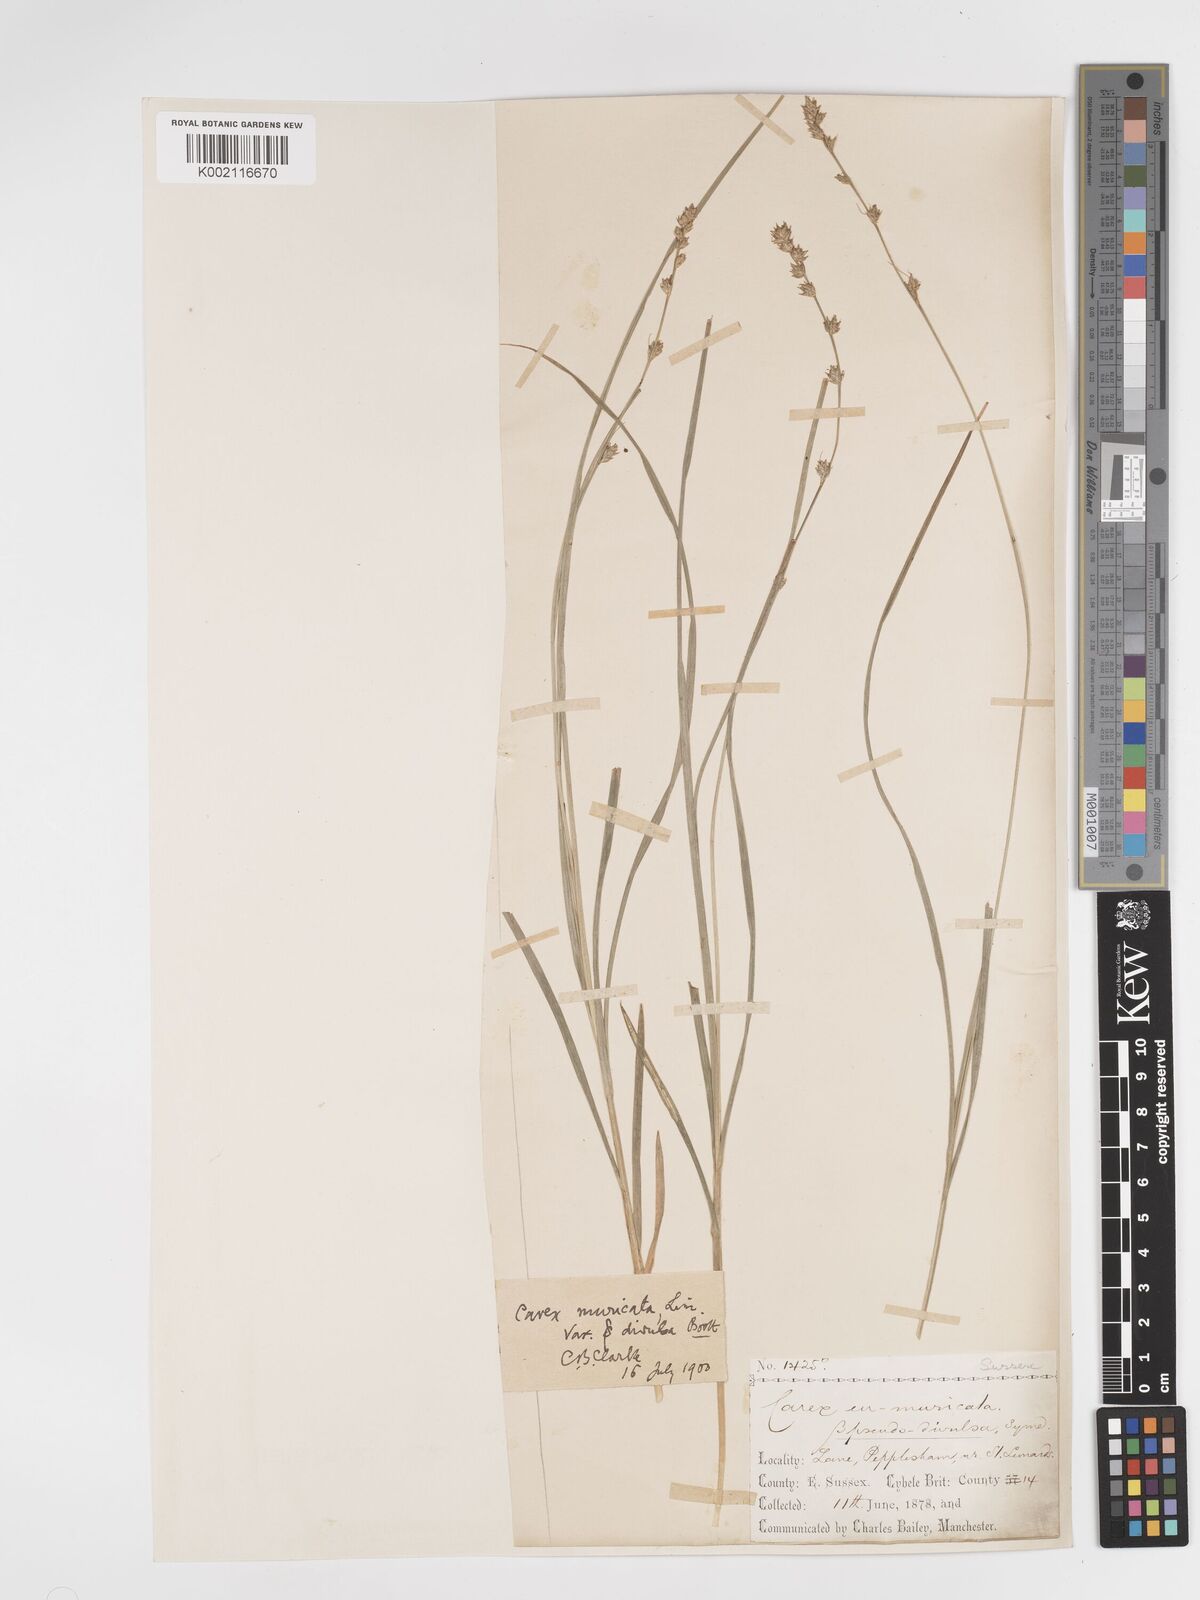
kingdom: Plantae
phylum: Tracheophyta
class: Liliopsida
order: Poales
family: Cyperaceae
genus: Carex
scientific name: Carex divulsa
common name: Grassland sedge
